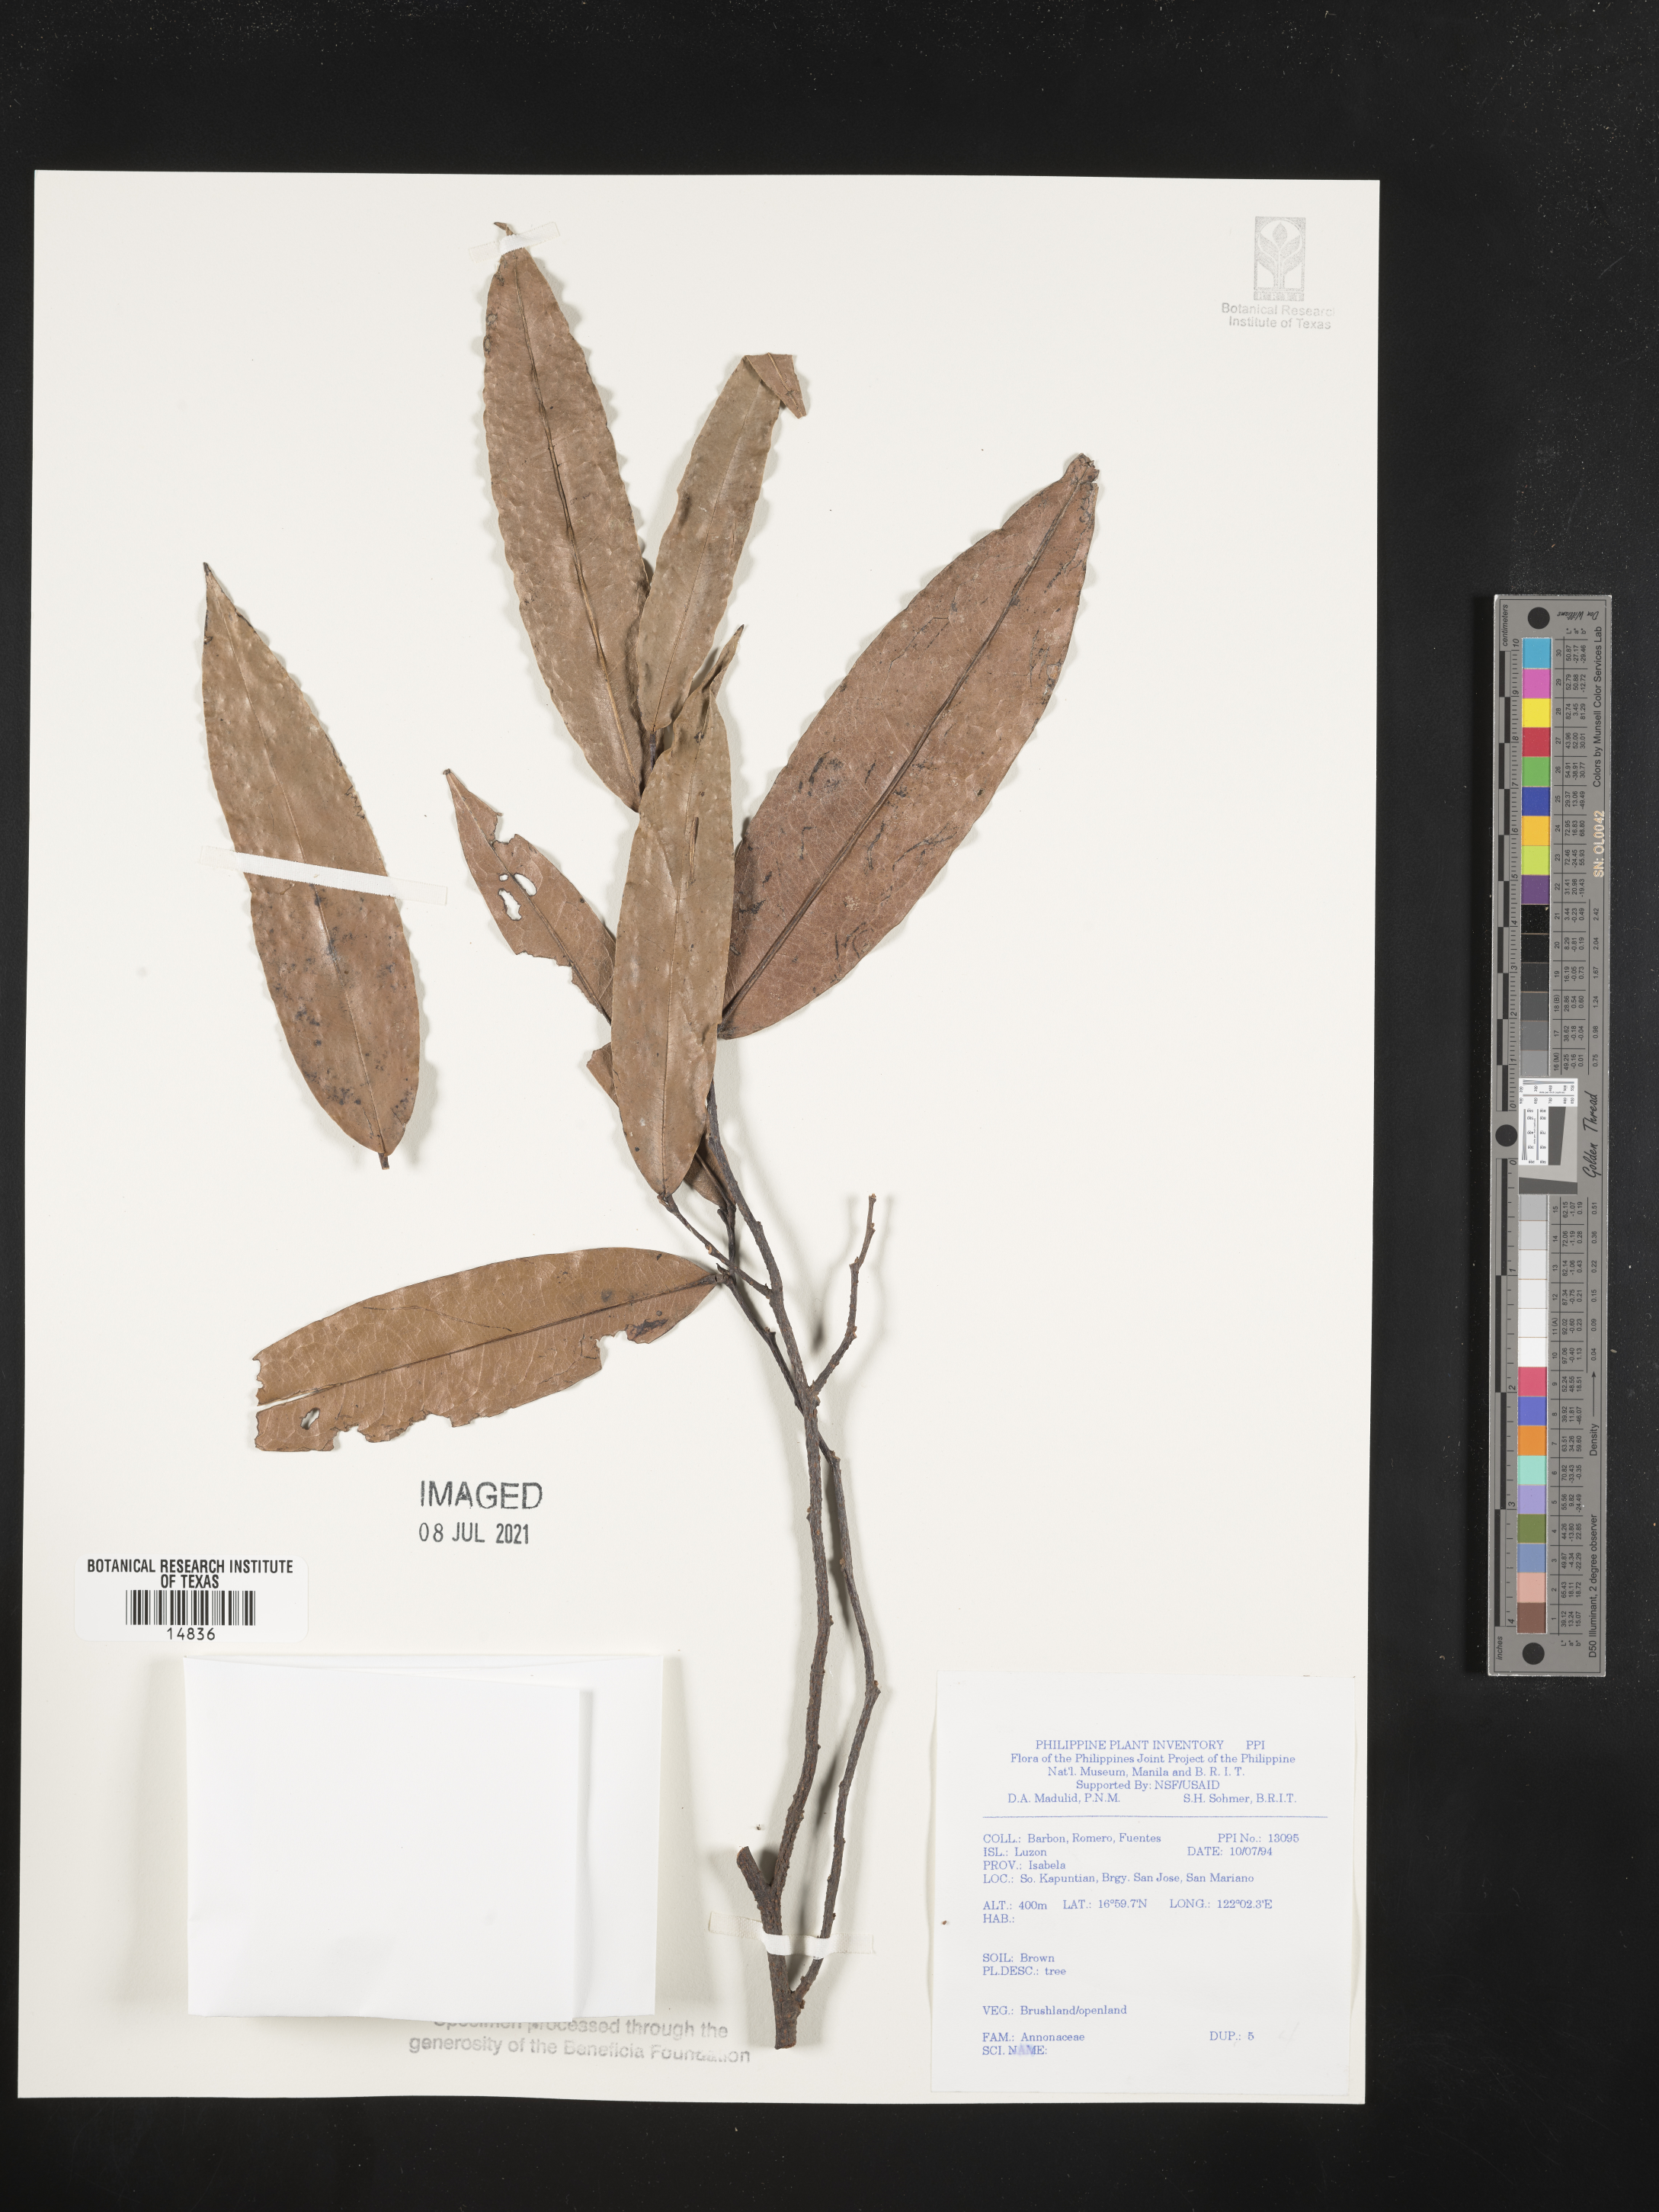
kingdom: Plantae
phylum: Tracheophyta
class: Magnoliopsida
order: Magnoliales
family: Annonaceae
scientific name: Annonaceae
